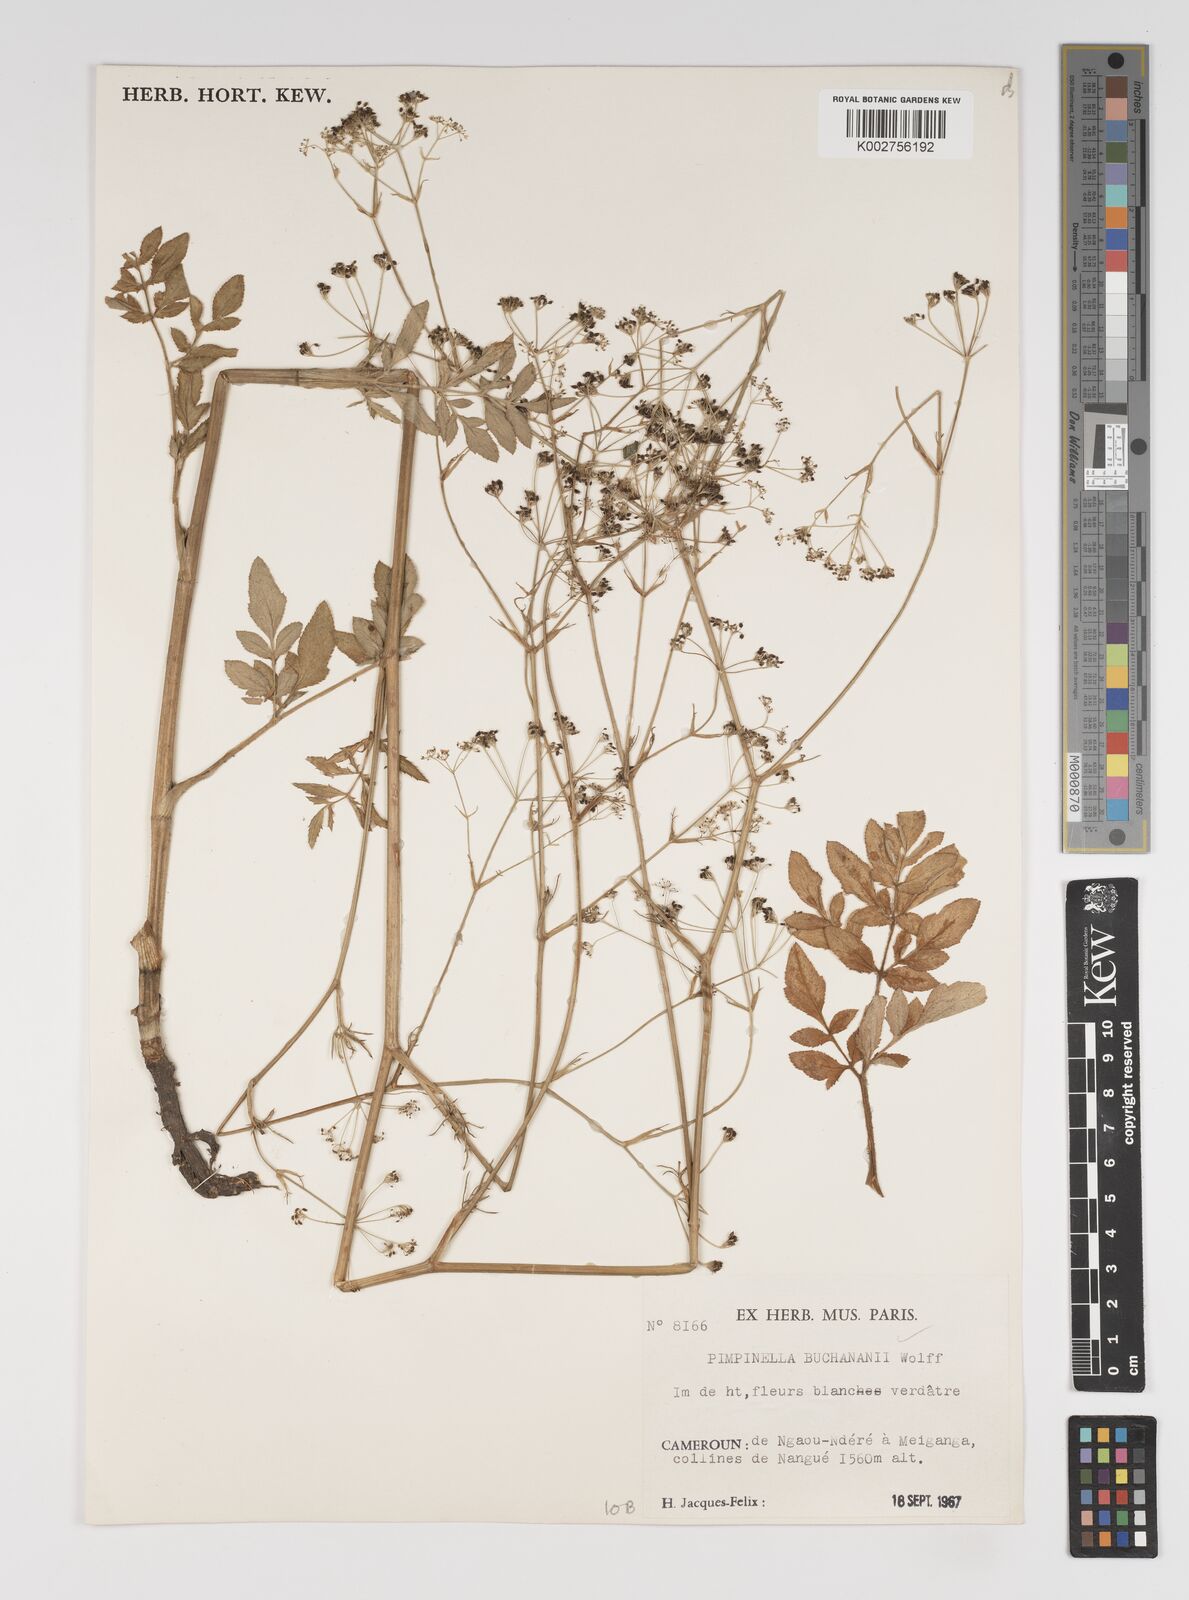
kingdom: Plantae
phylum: Tracheophyta
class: Magnoliopsida
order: Apiales
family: Apiaceae
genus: Pimpinella
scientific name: Pimpinella buchananii
